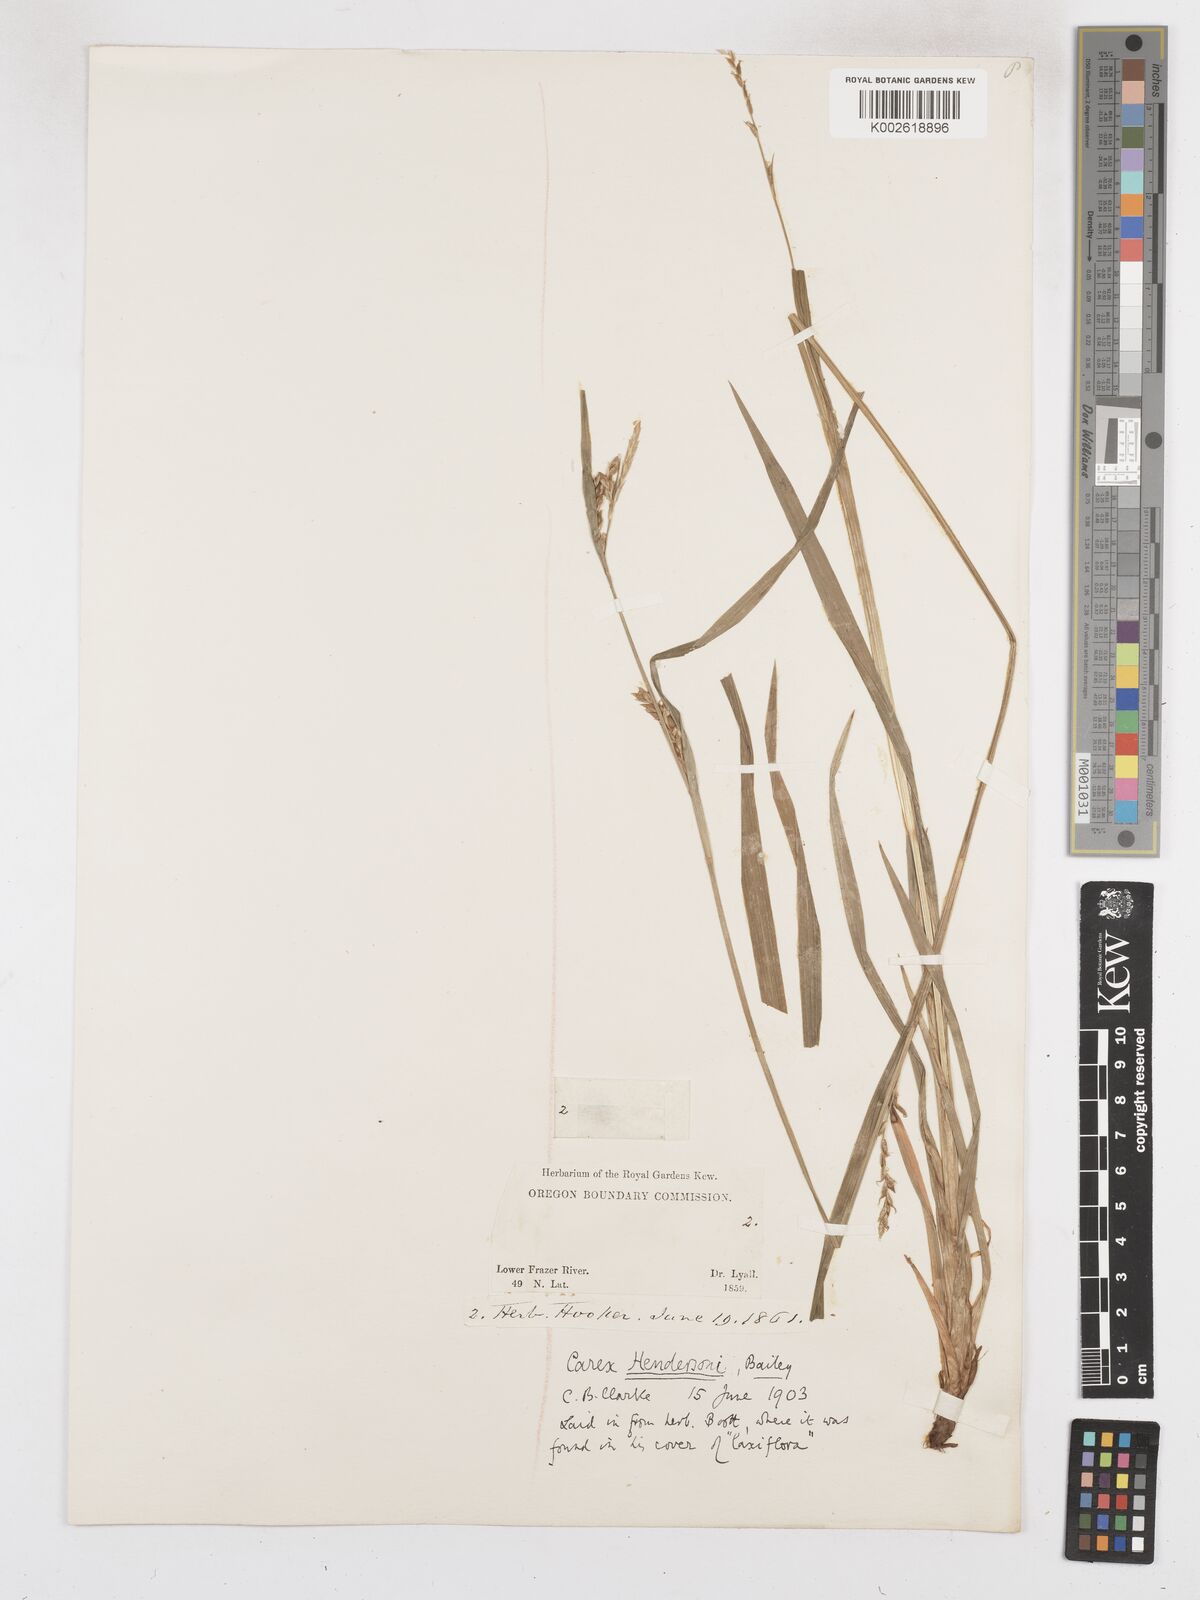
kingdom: Plantae
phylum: Tracheophyta
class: Liliopsida
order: Poales
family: Cyperaceae
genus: Carex
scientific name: Carex hendersonii
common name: Henderson's sedge
